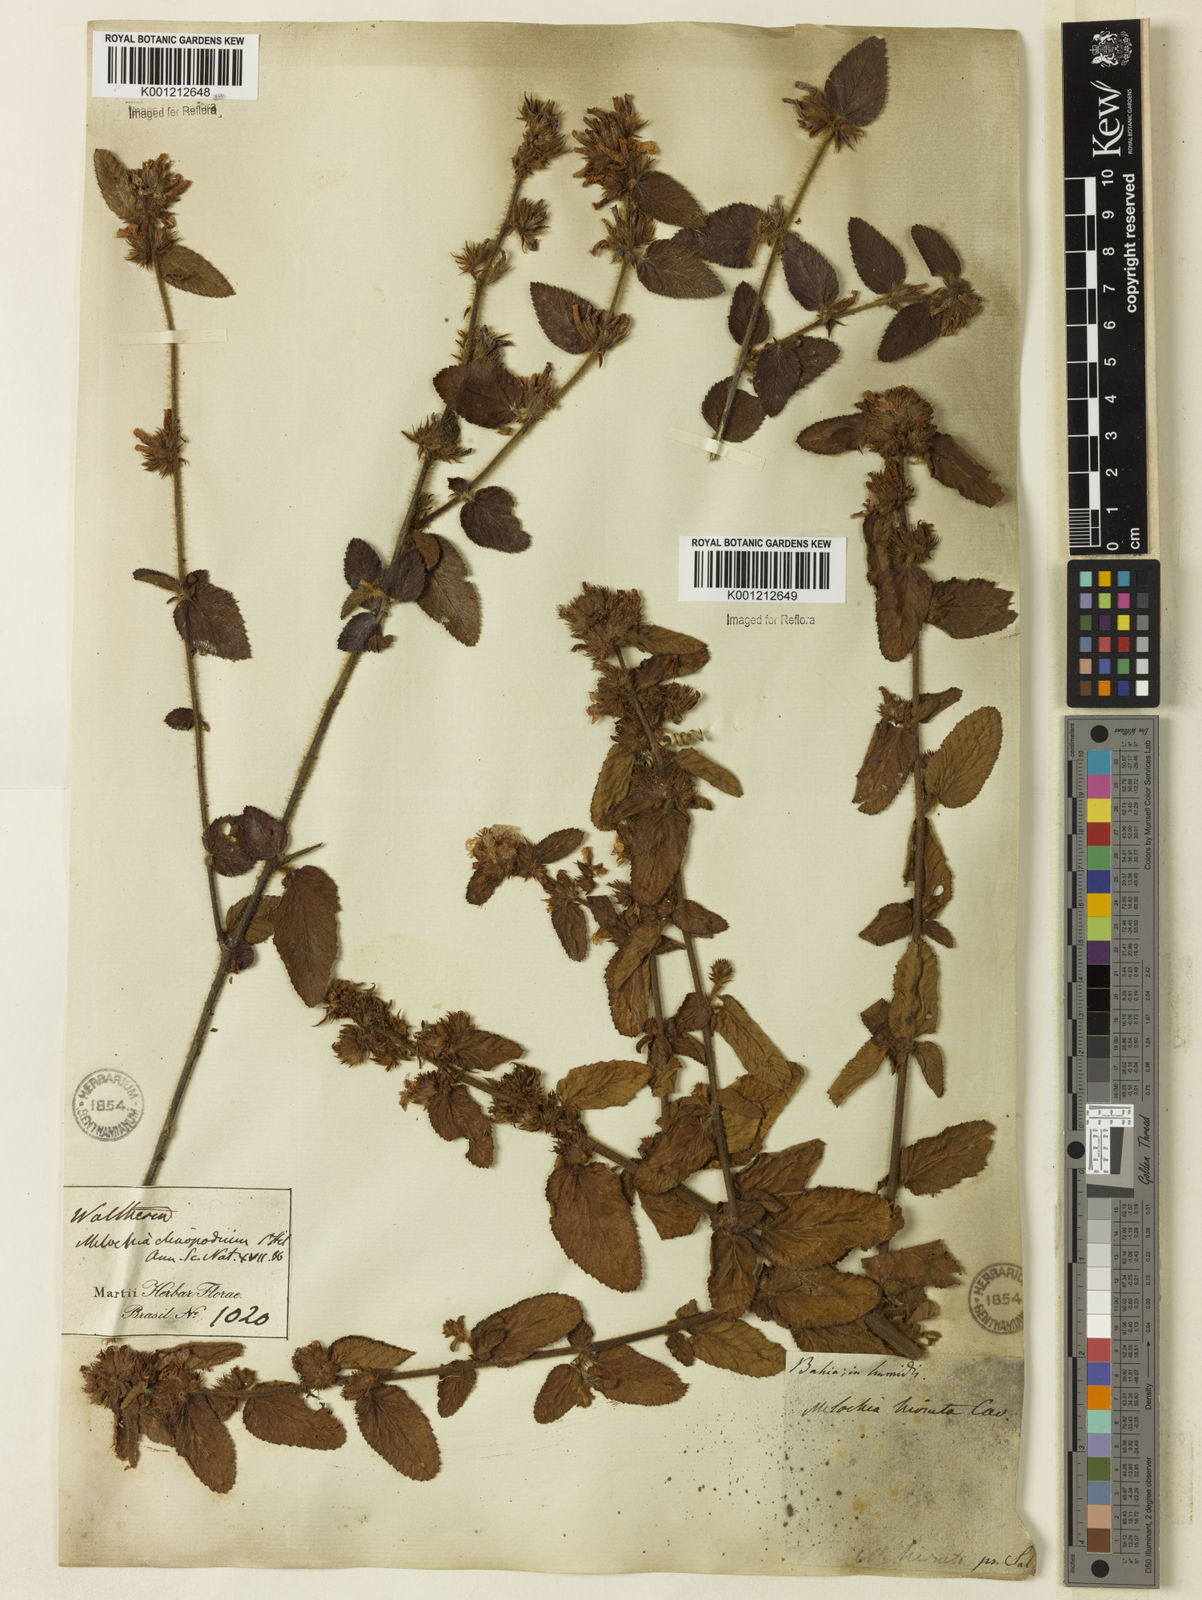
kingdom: Plantae
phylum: Tracheophyta
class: Magnoliopsida
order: Malvales
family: Malvaceae
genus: Melochia
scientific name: Melochia spicata
